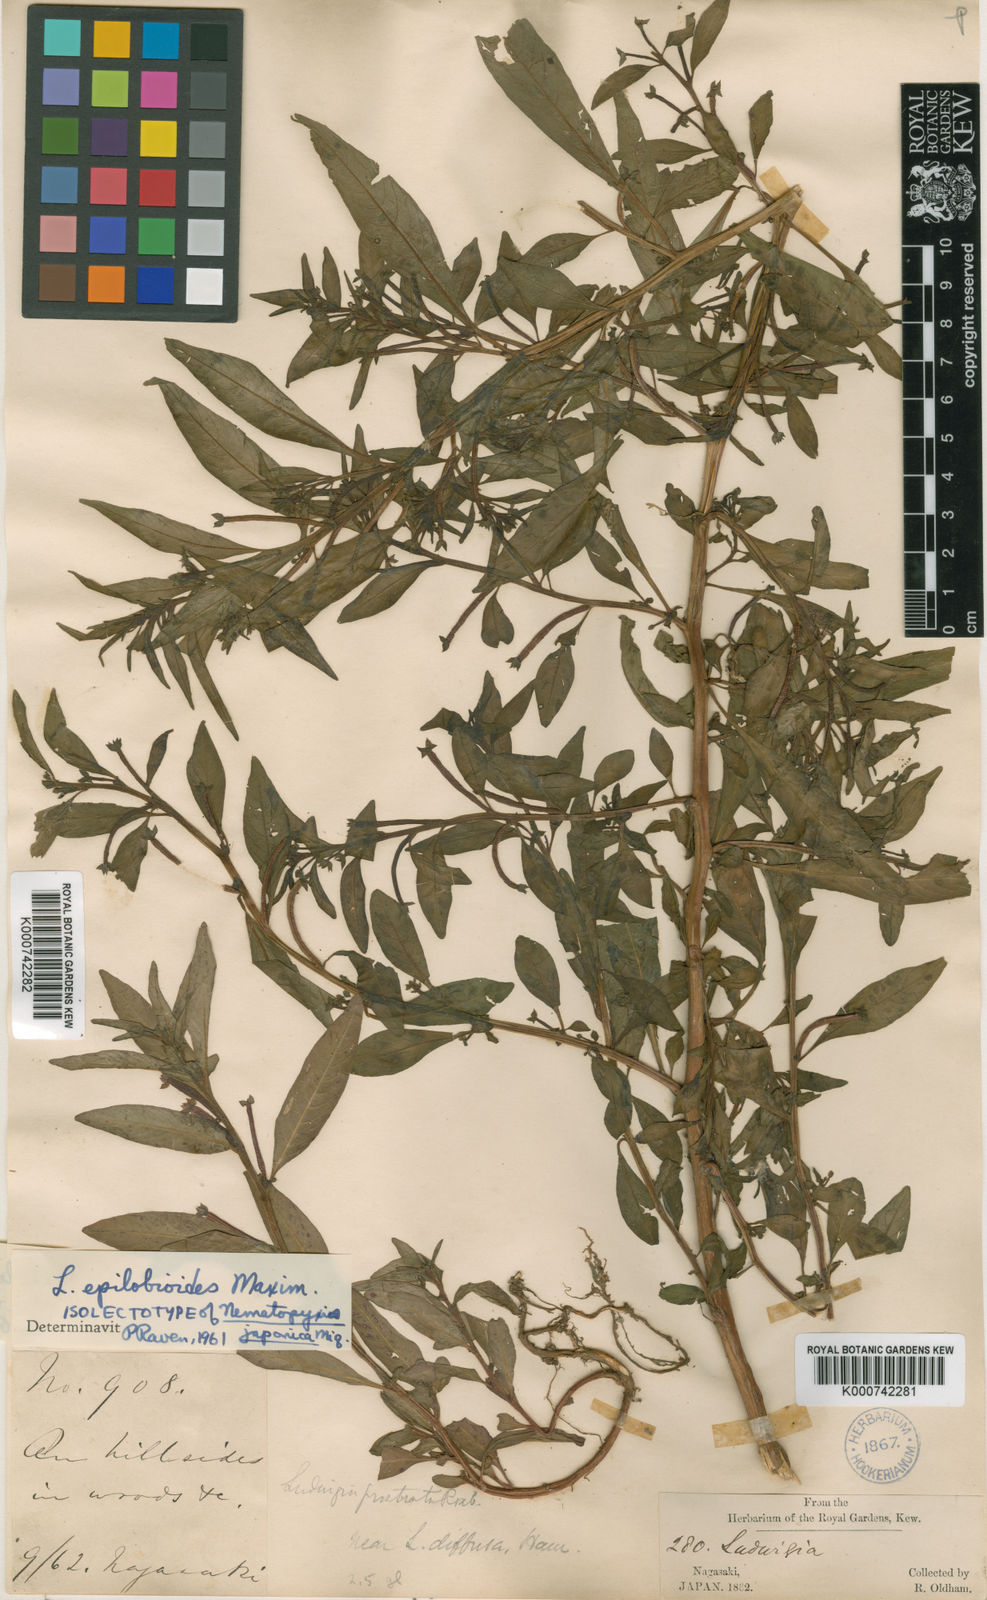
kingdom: Plantae
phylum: Tracheophyta
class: Magnoliopsida
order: Myrtales
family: Onagraceae
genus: Ludwigia
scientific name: Ludwigia epilobioides
